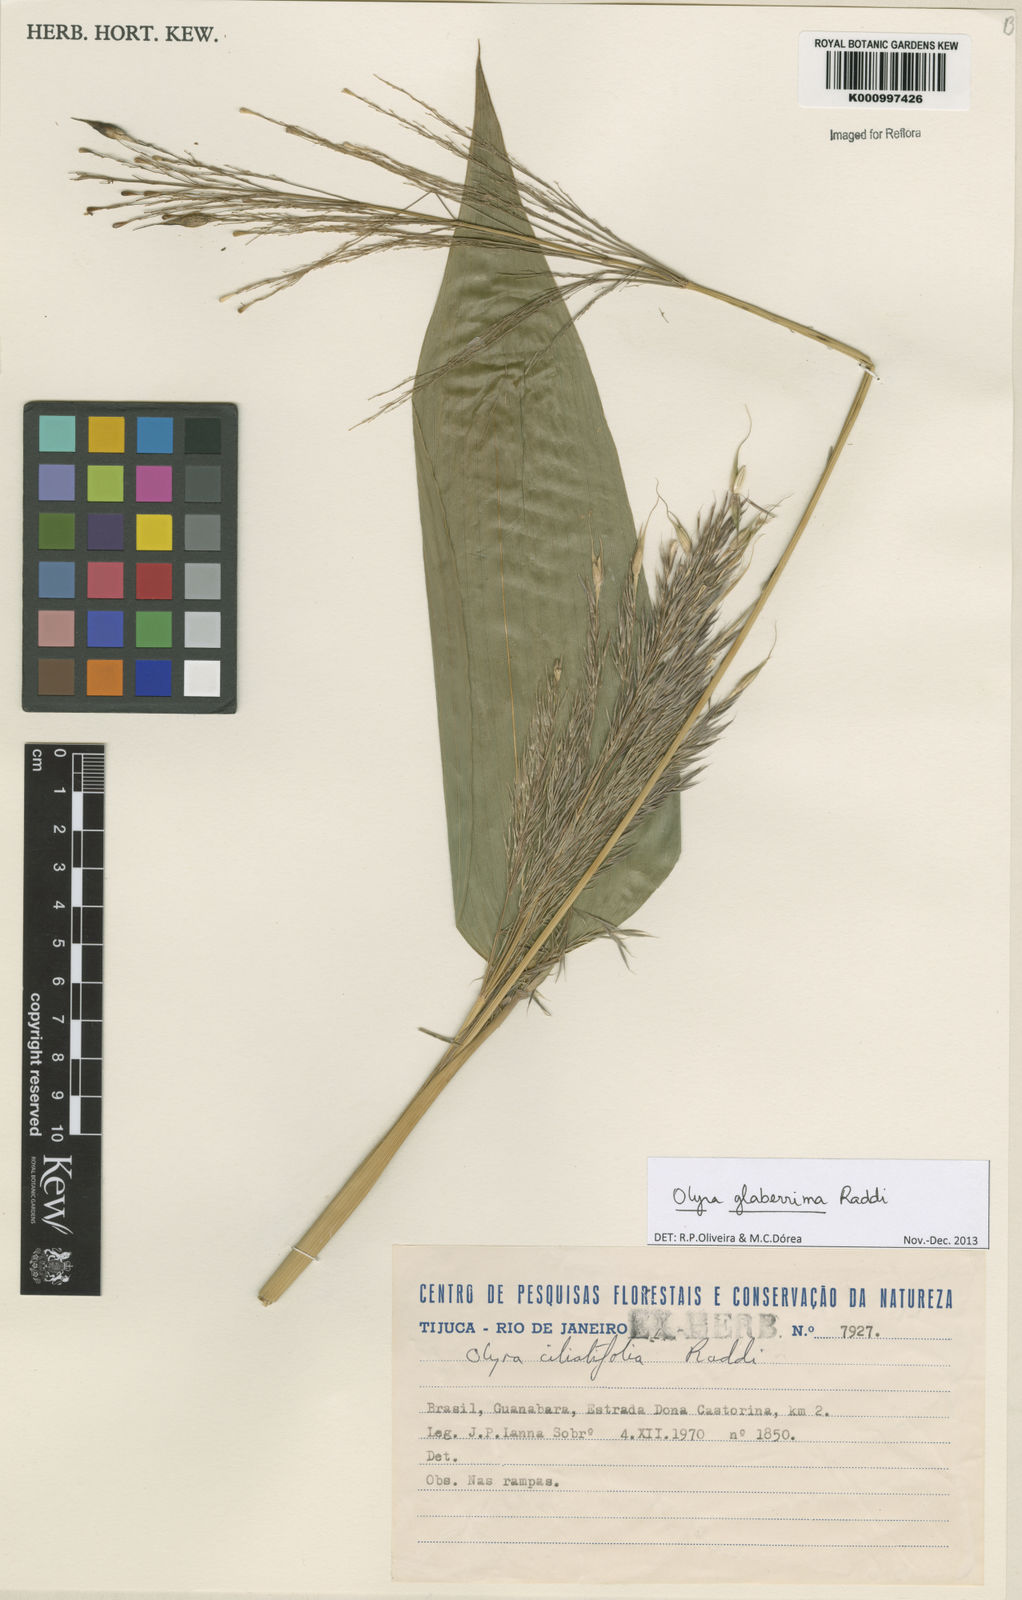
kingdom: Plantae
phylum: Tracheophyta
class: Liliopsida
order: Poales
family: Poaceae
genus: Olyra
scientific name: Olyra glaberrima
